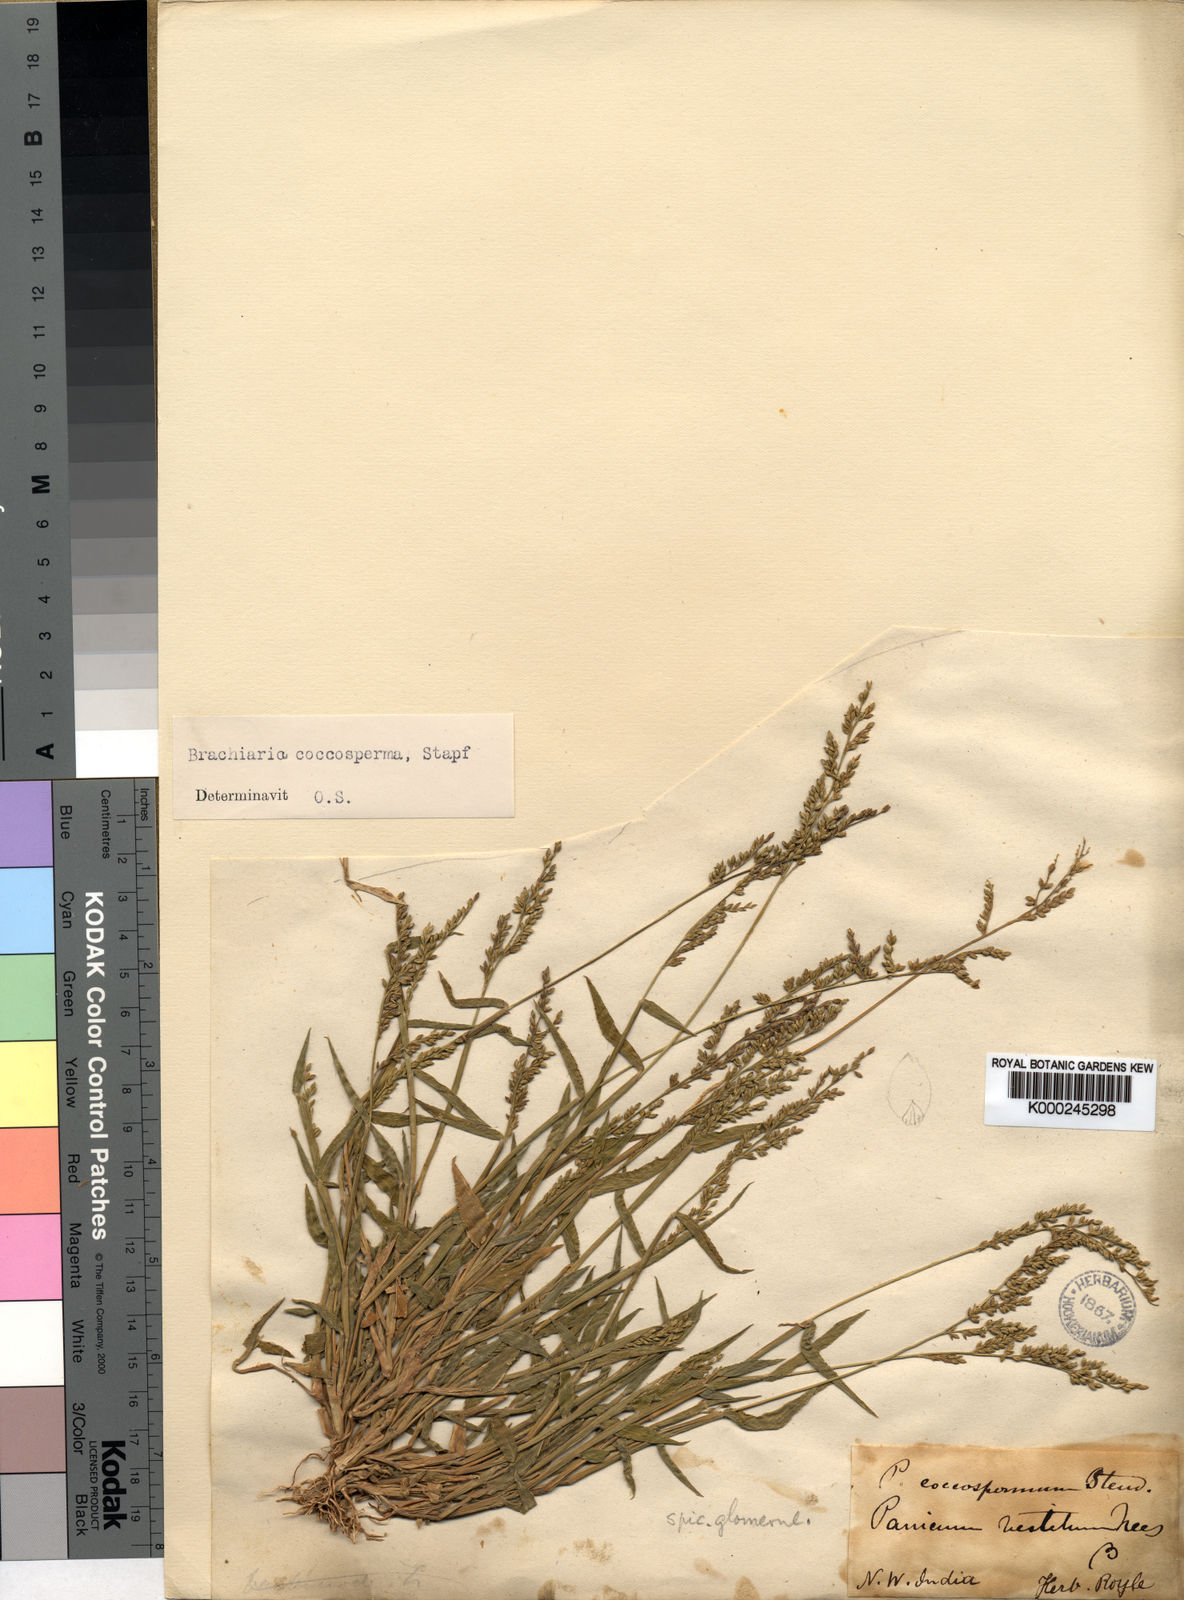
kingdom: Plantae
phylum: Tracheophyta
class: Liliopsida
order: Poales
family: Poaceae
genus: Urochloa
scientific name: Urochloa villosa
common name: Hairy signalgrass
